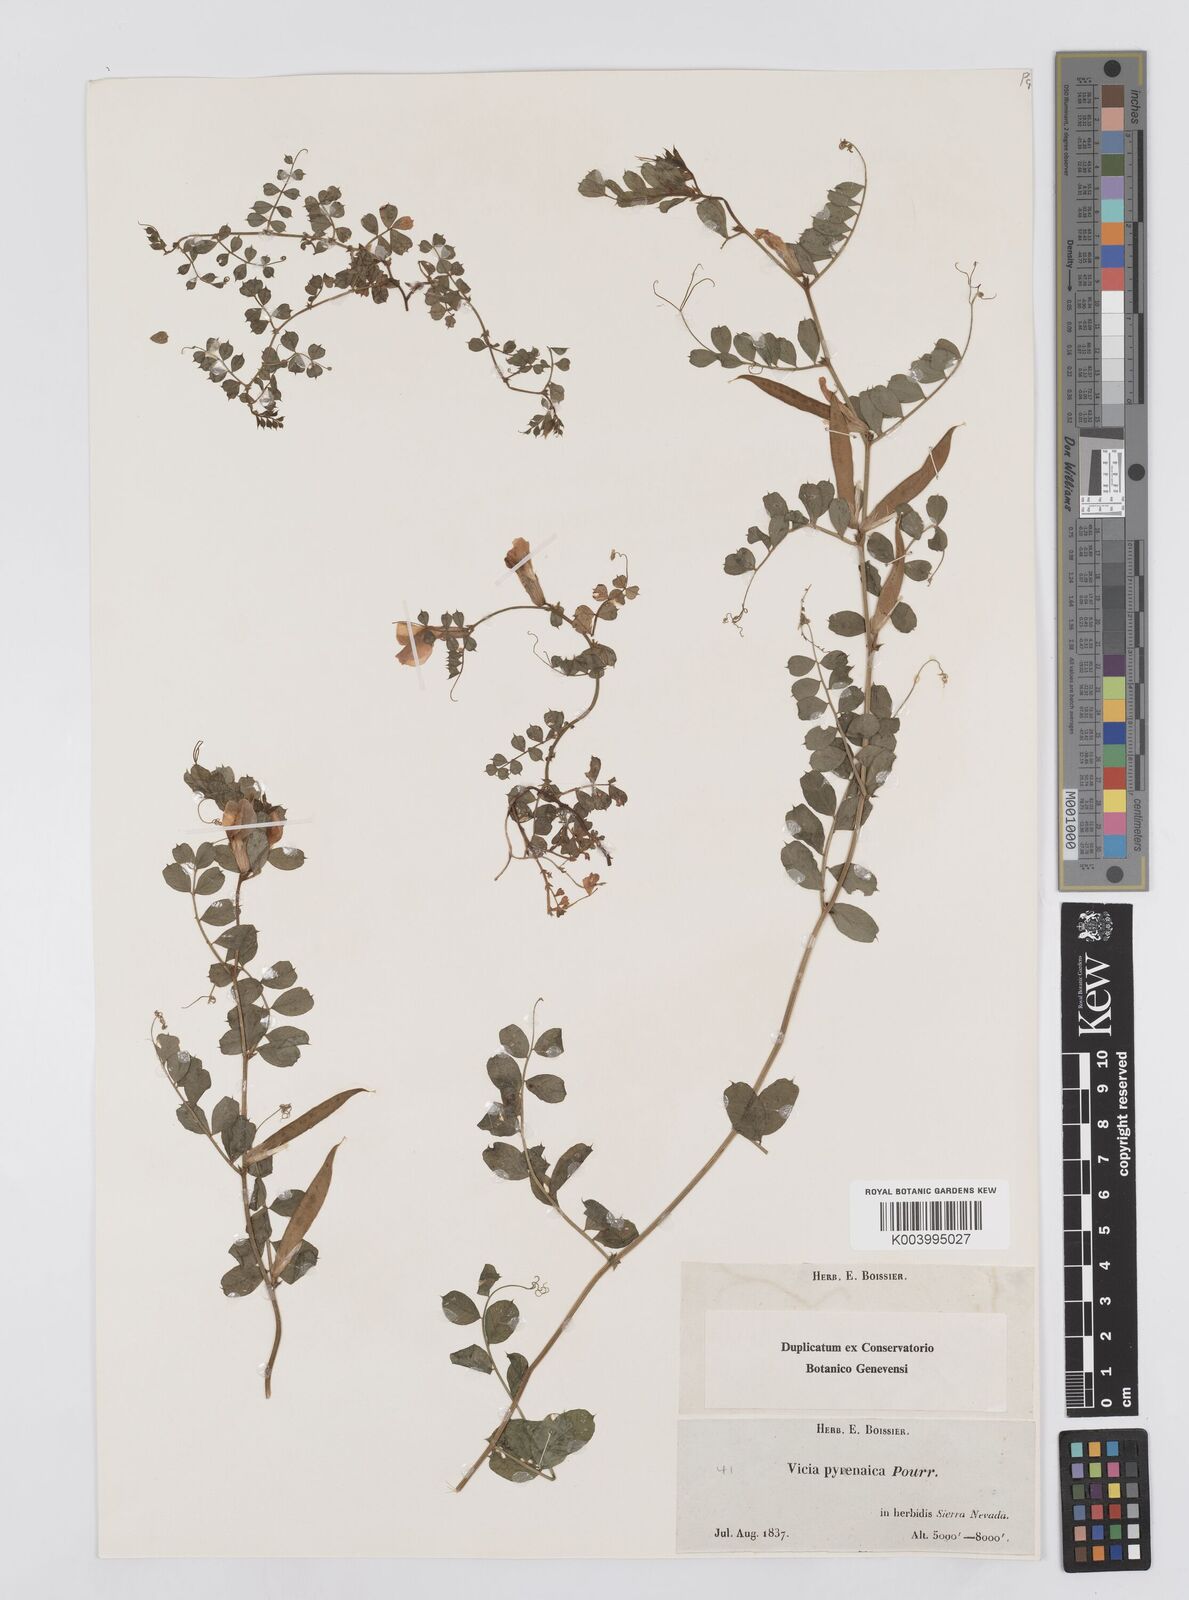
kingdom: Plantae
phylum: Tracheophyta
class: Magnoliopsida
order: Fabales
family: Fabaceae
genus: Vicia
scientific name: Vicia pyrenaica
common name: Pyrenean vetch
